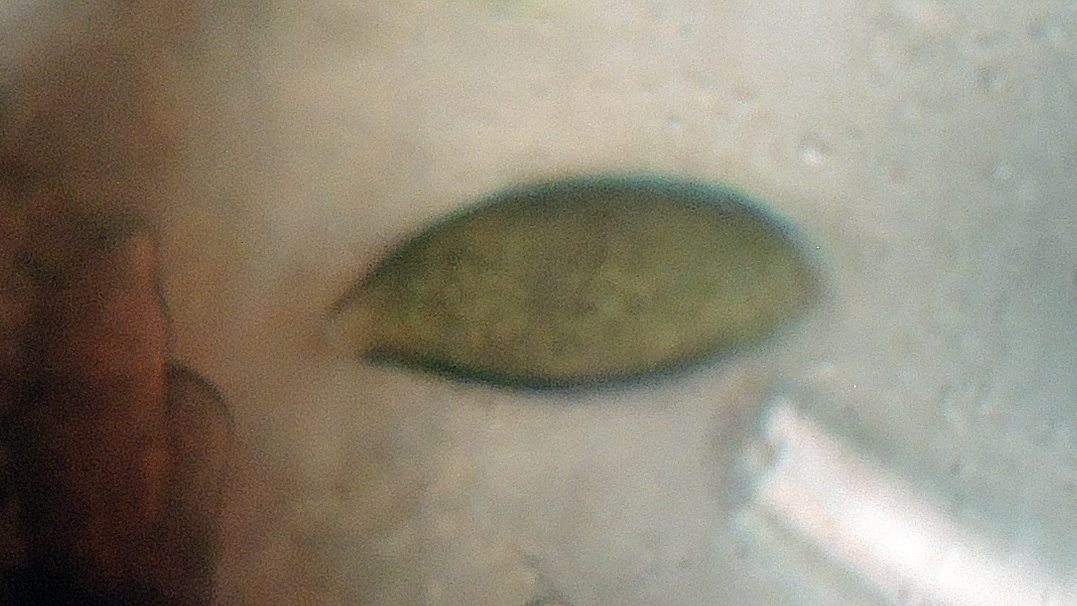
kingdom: Fungi
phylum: Ascomycota
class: Sordariomycetes
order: Xylariales
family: Xylariaceae
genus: Anthostomella
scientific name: Anthostomella
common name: skjoldkerne
